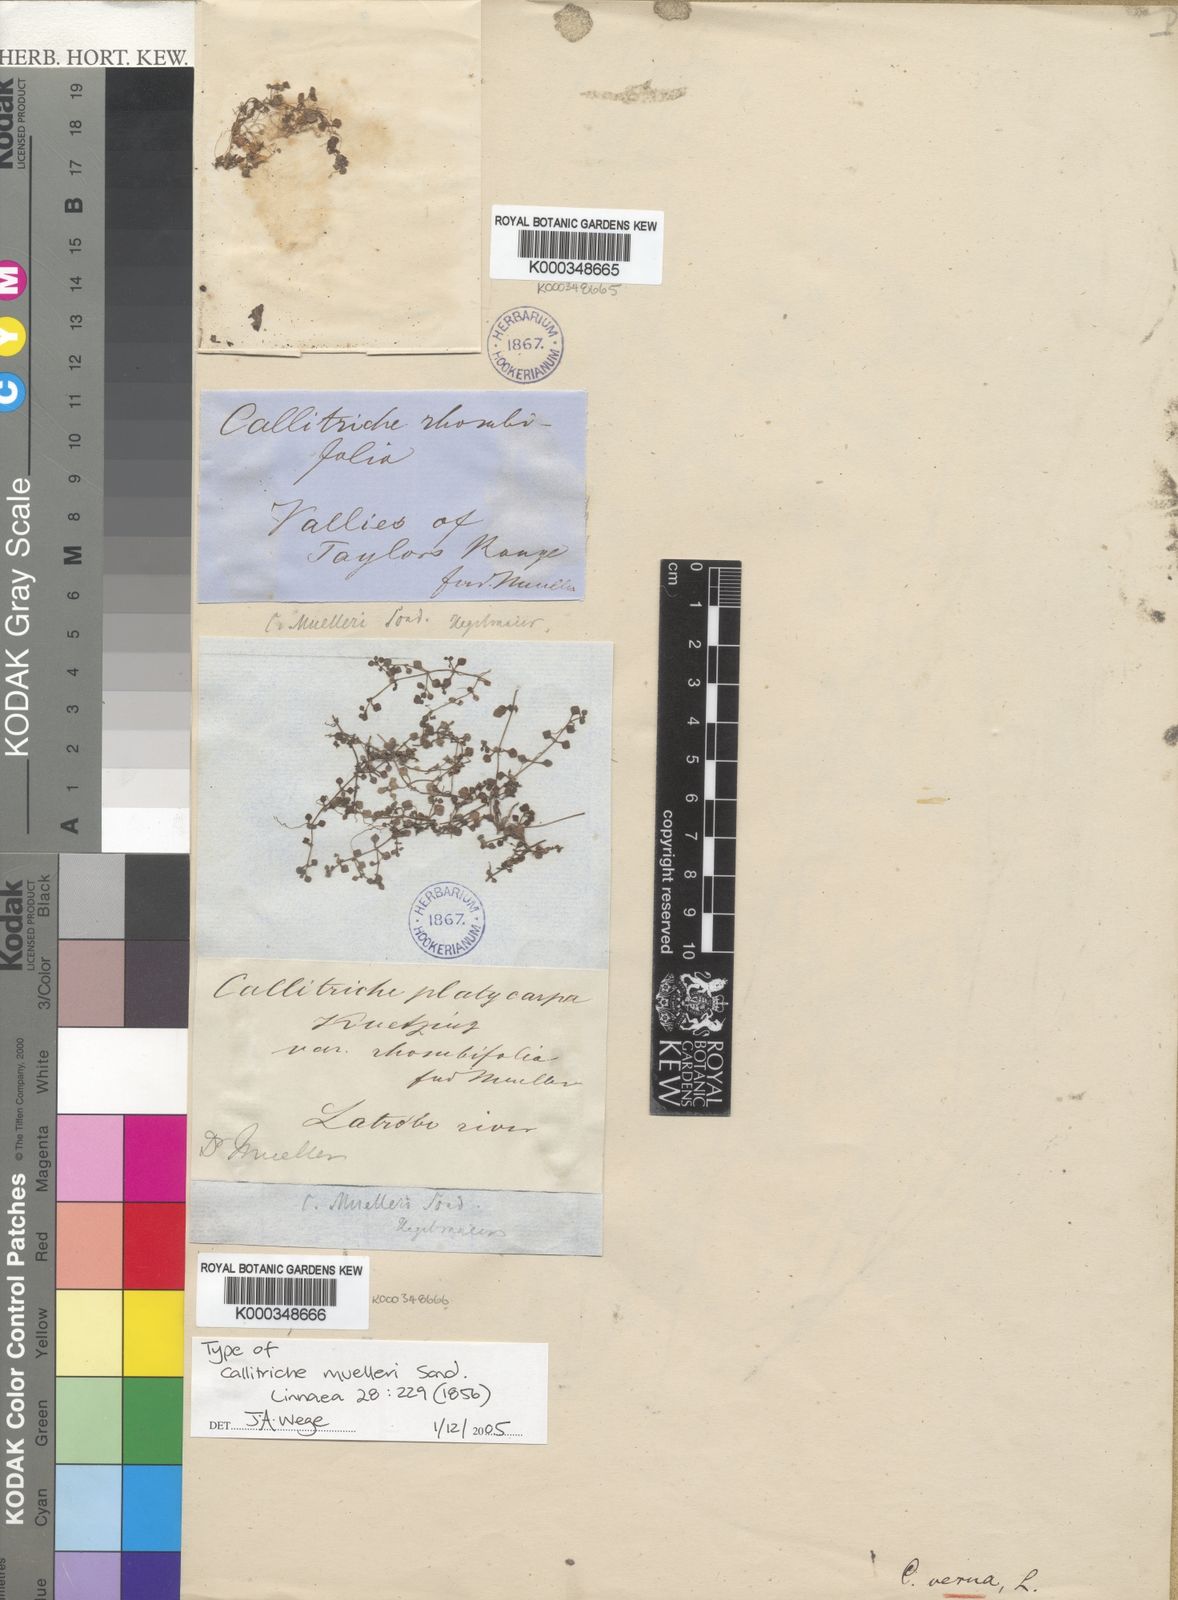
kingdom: Plantae
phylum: Tracheophyta
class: Magnoliopsida
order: Lamiales
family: Plantaginaceae
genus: Callitriche
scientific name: Callitriche muelleri
